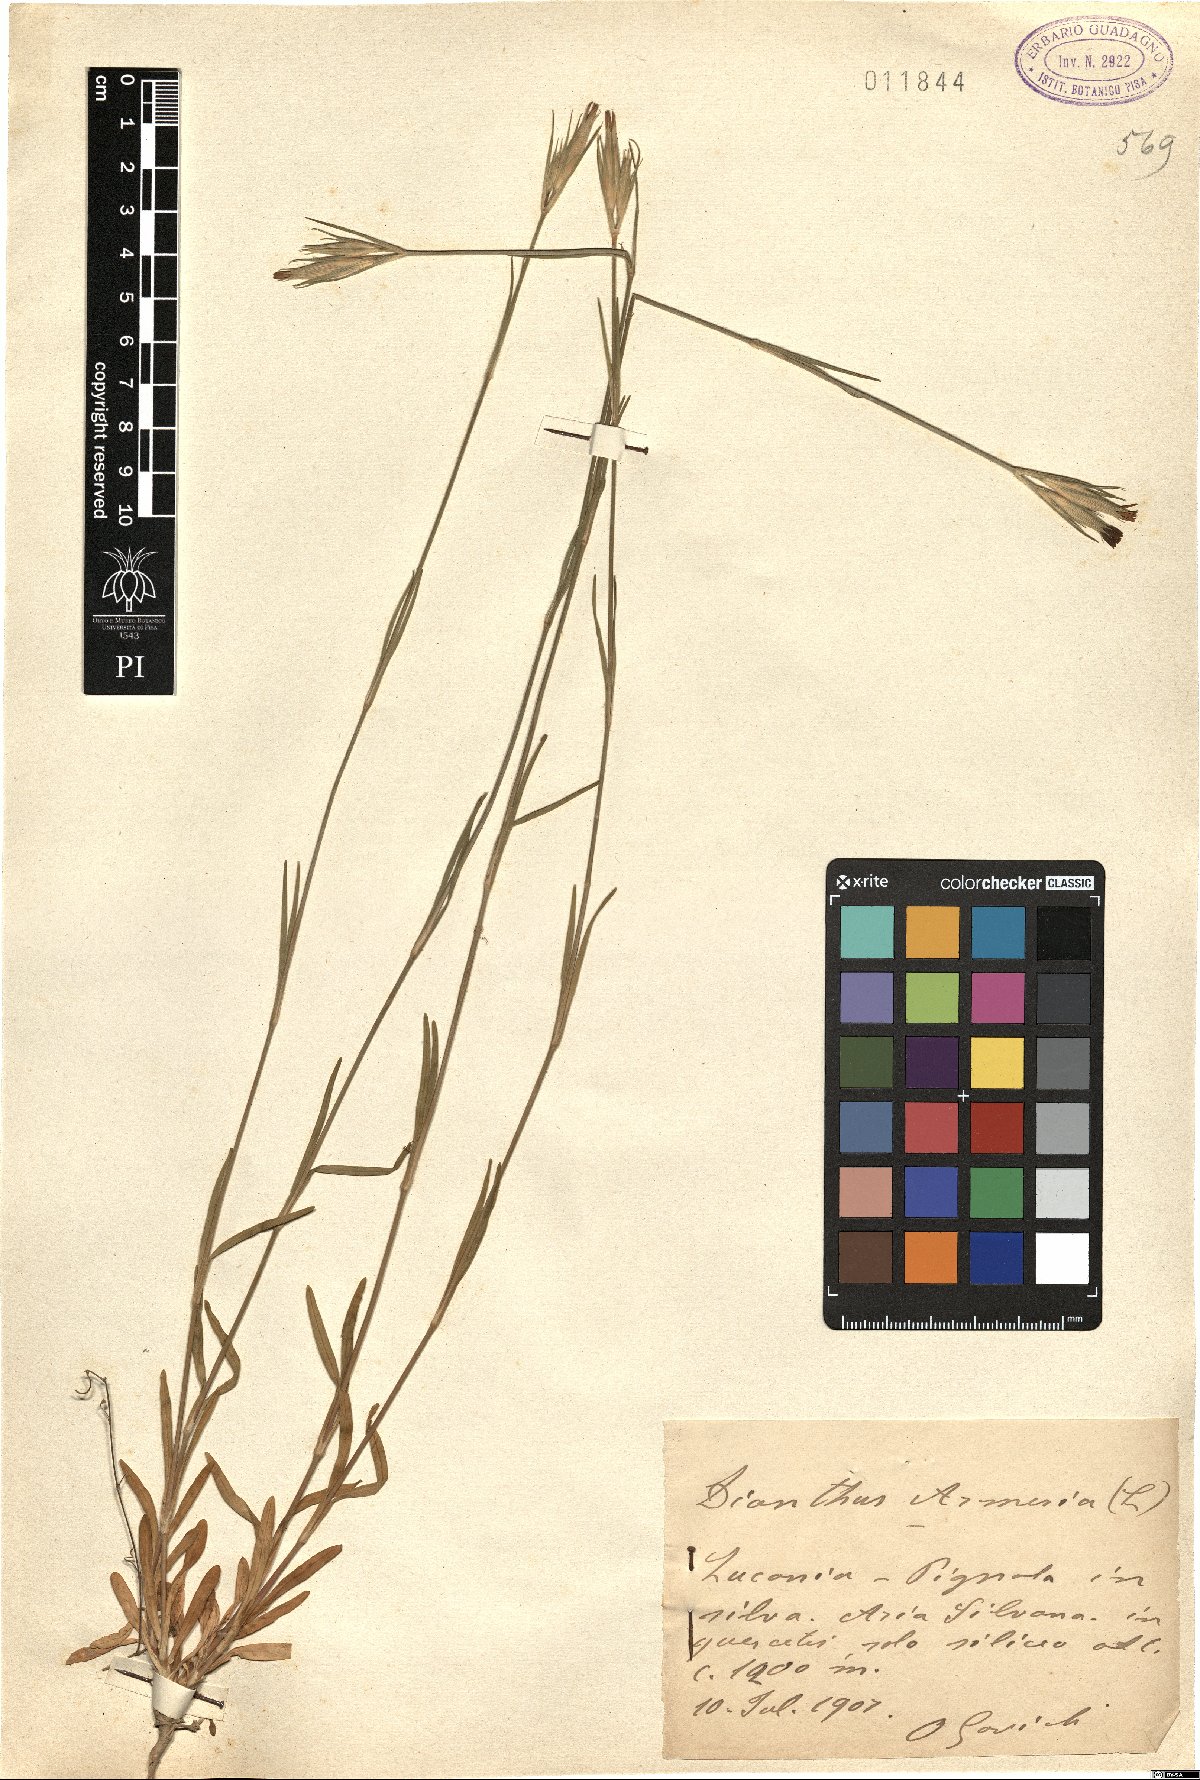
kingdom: Plantae
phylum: Tracheophyta
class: Magnoliopsida
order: Caryophyllales
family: Caryophyllaceae
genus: Dianthus
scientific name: Dianthus armeria
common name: Deptford pink
